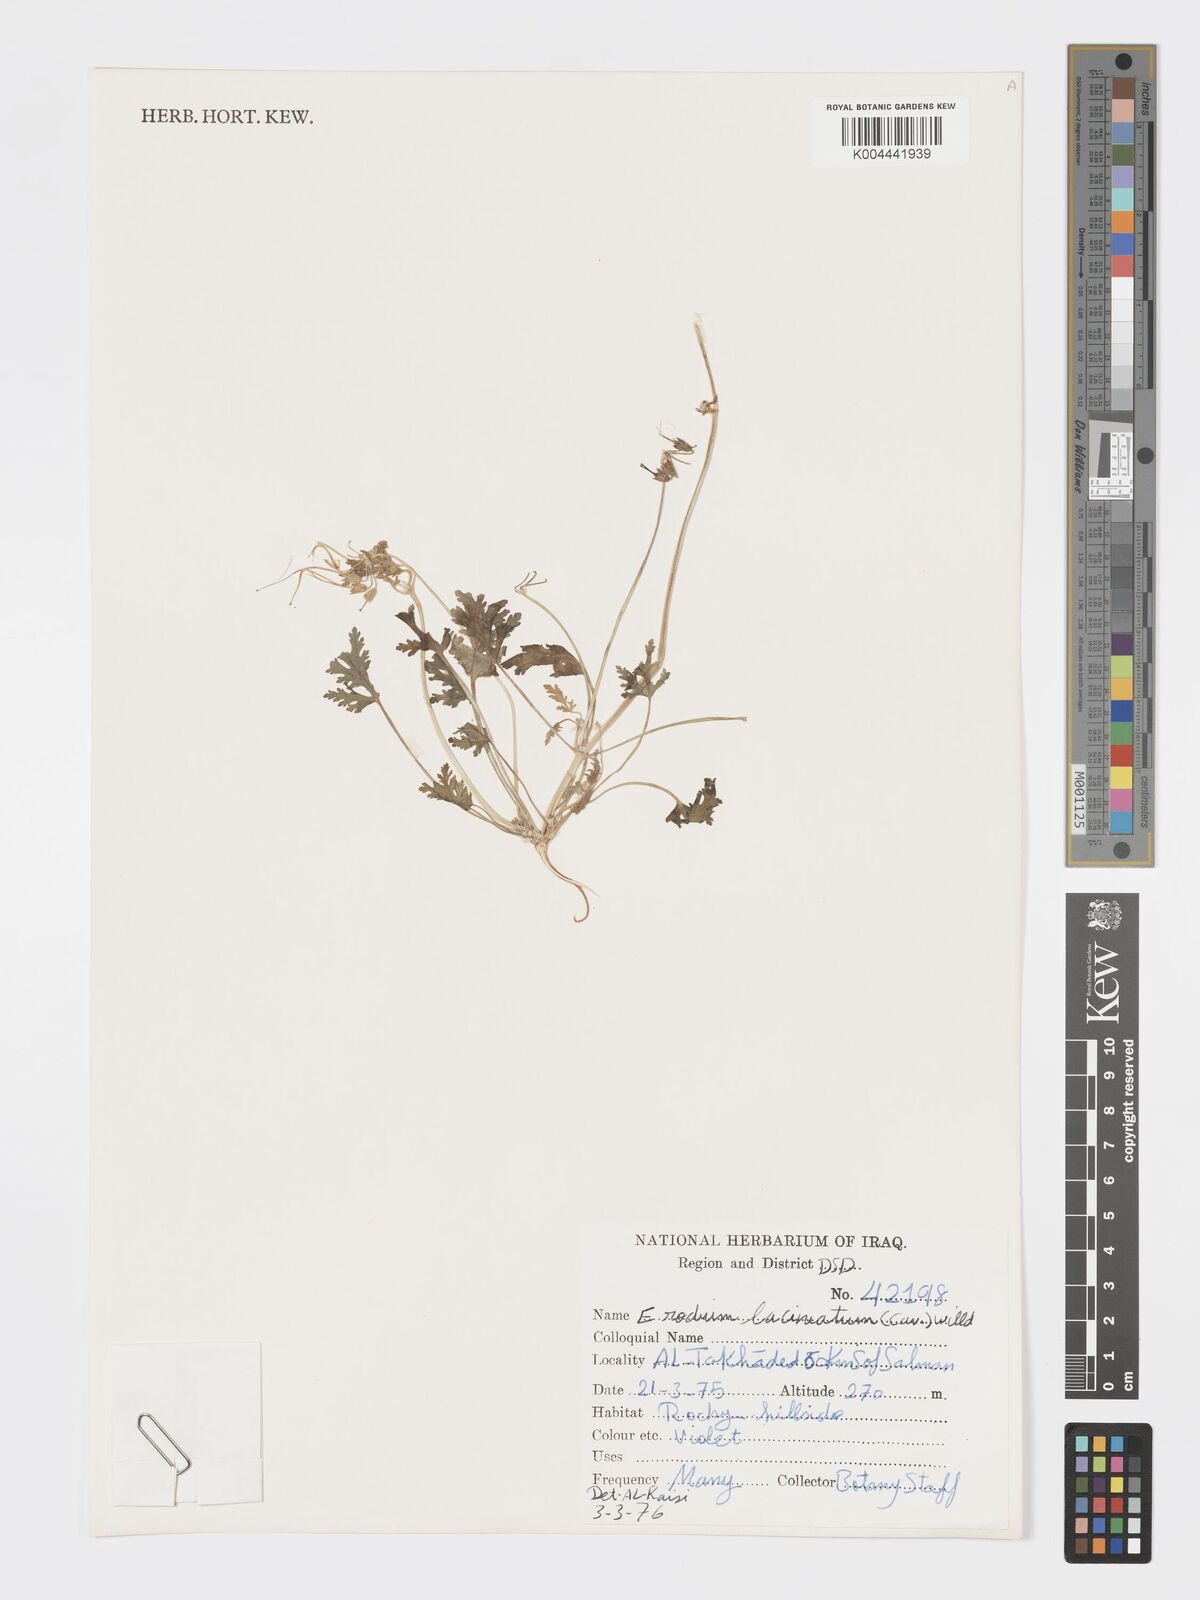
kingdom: Plantae
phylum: Tracheophyta
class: Magnoliopsida
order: Geraniales
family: Geraniaceae
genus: Erodium
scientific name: Erodium laciniatum
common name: Cutleaf stork's bill
